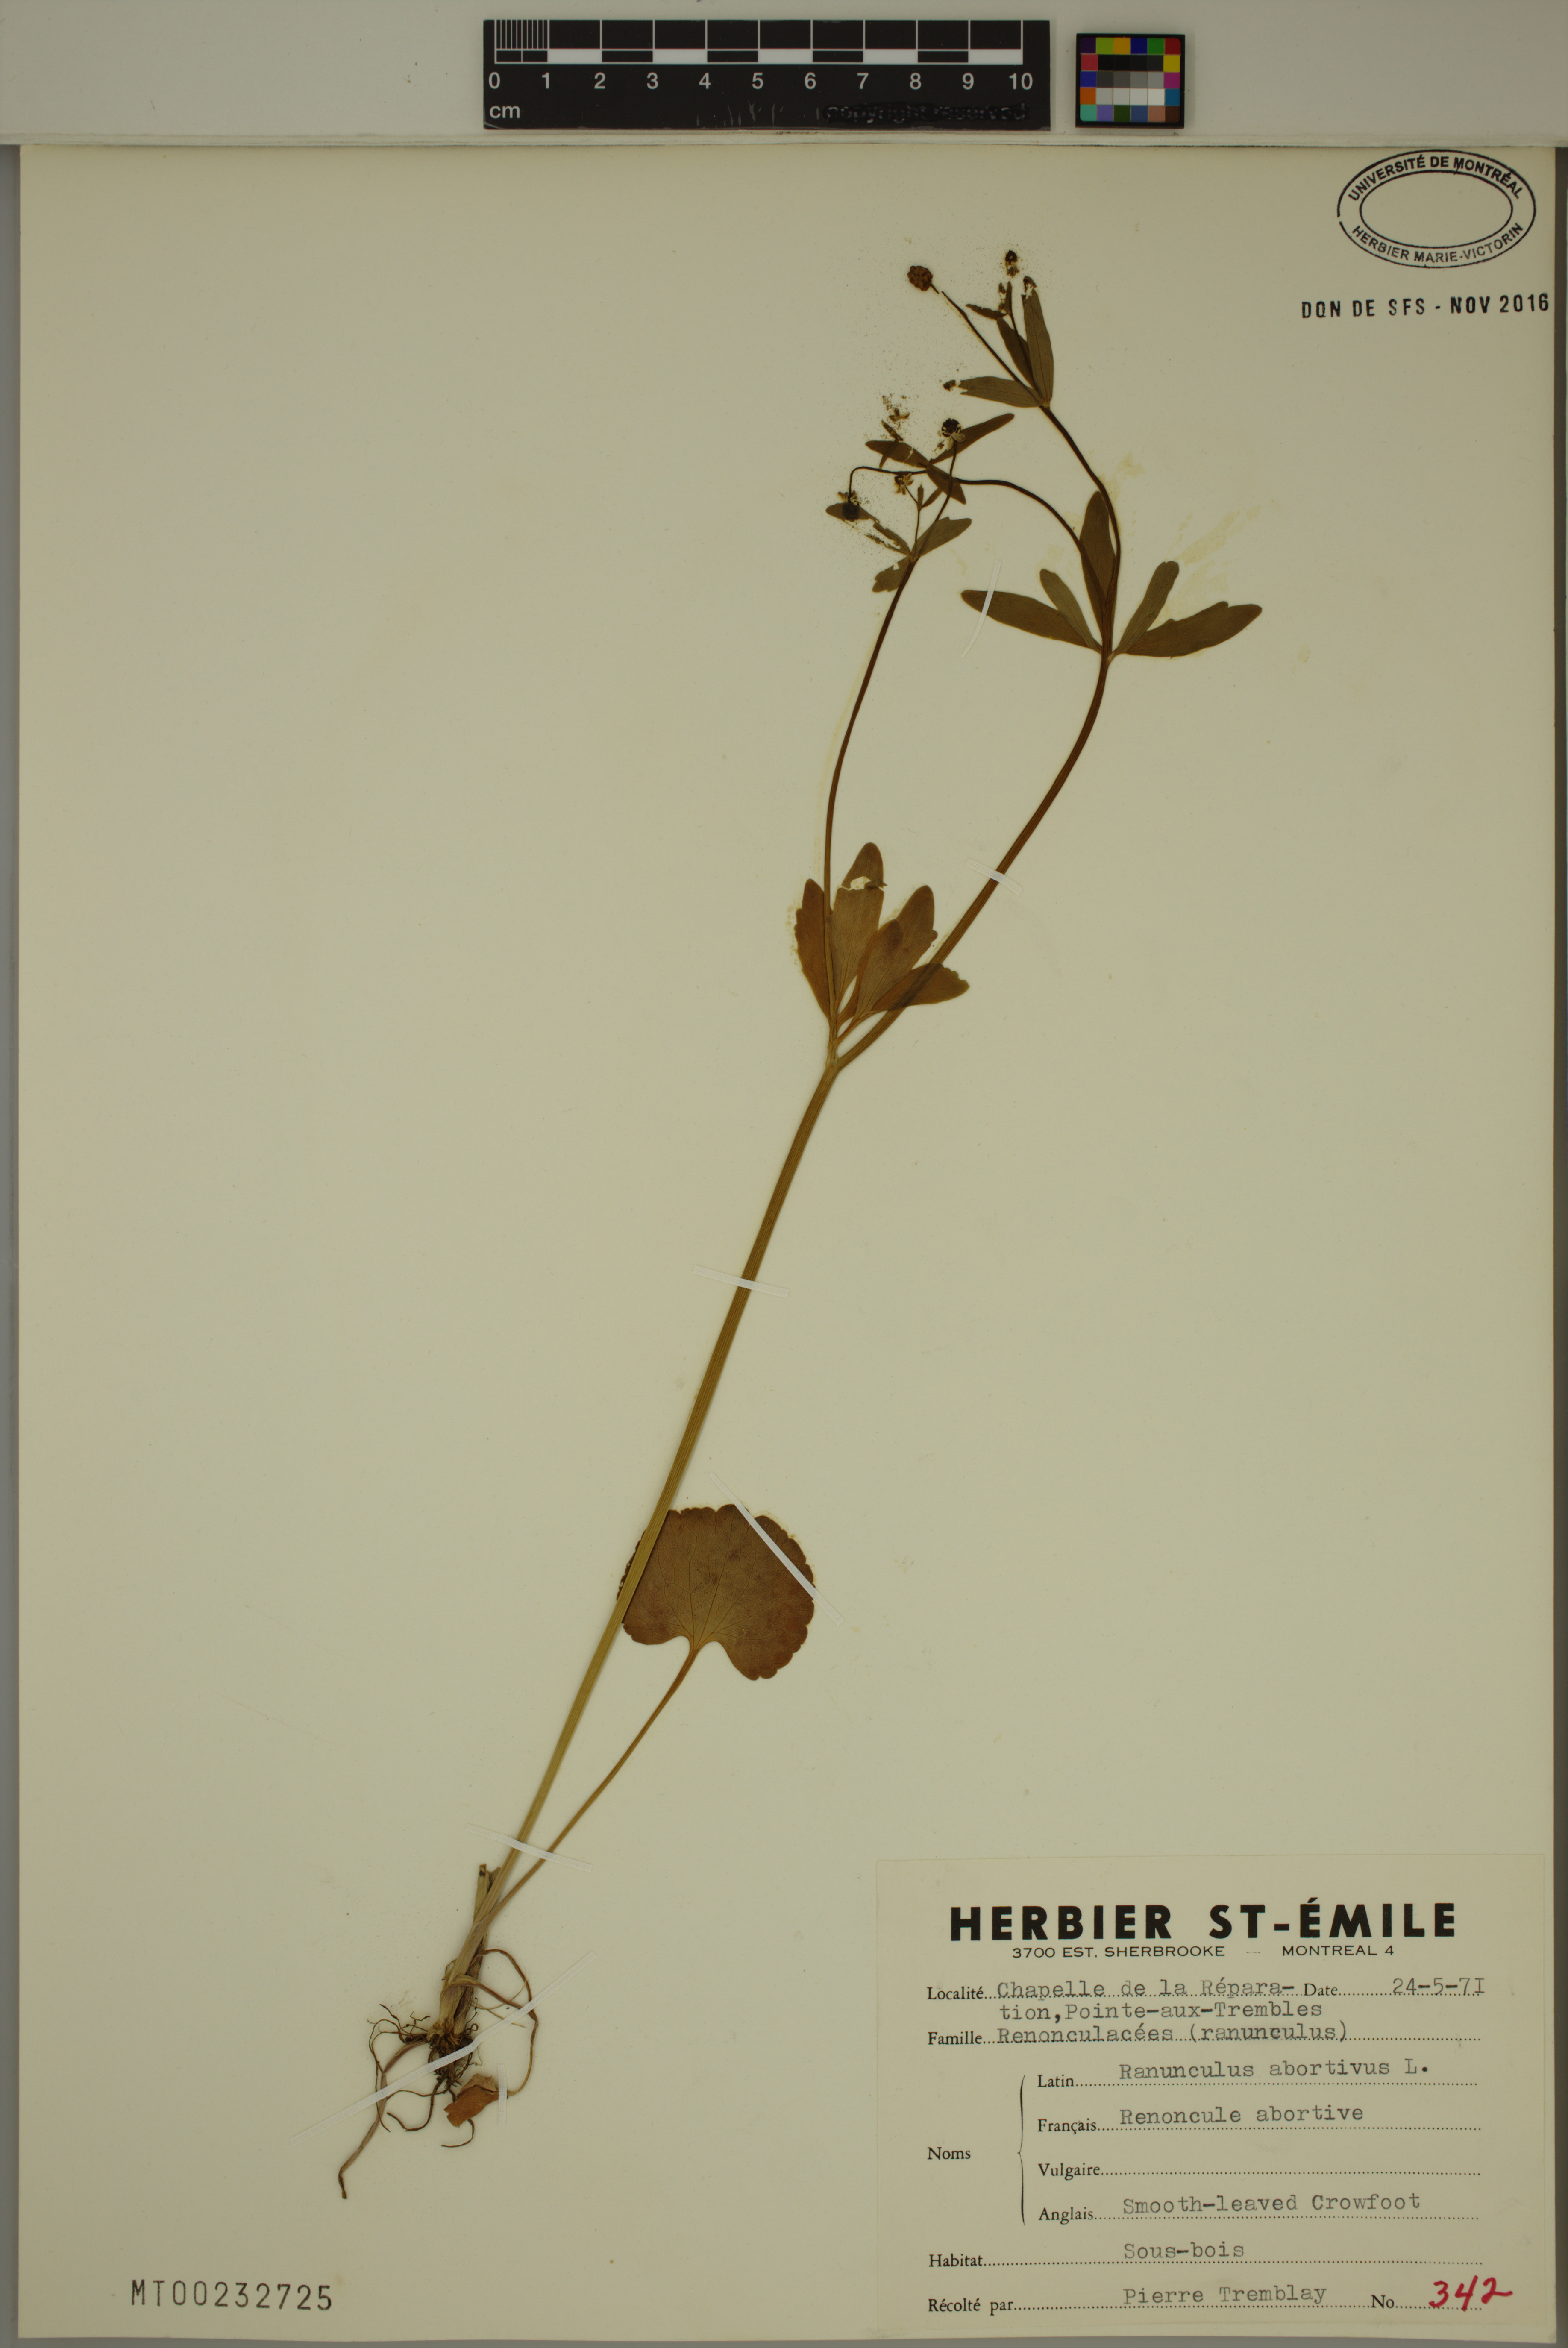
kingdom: Plantae
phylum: Tracheophyta
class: Magnoliopsida
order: Ranunculales
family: Ranunculaceae
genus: Ranunculus
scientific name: Ranunculus abortivus
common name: Early wood buttercup
